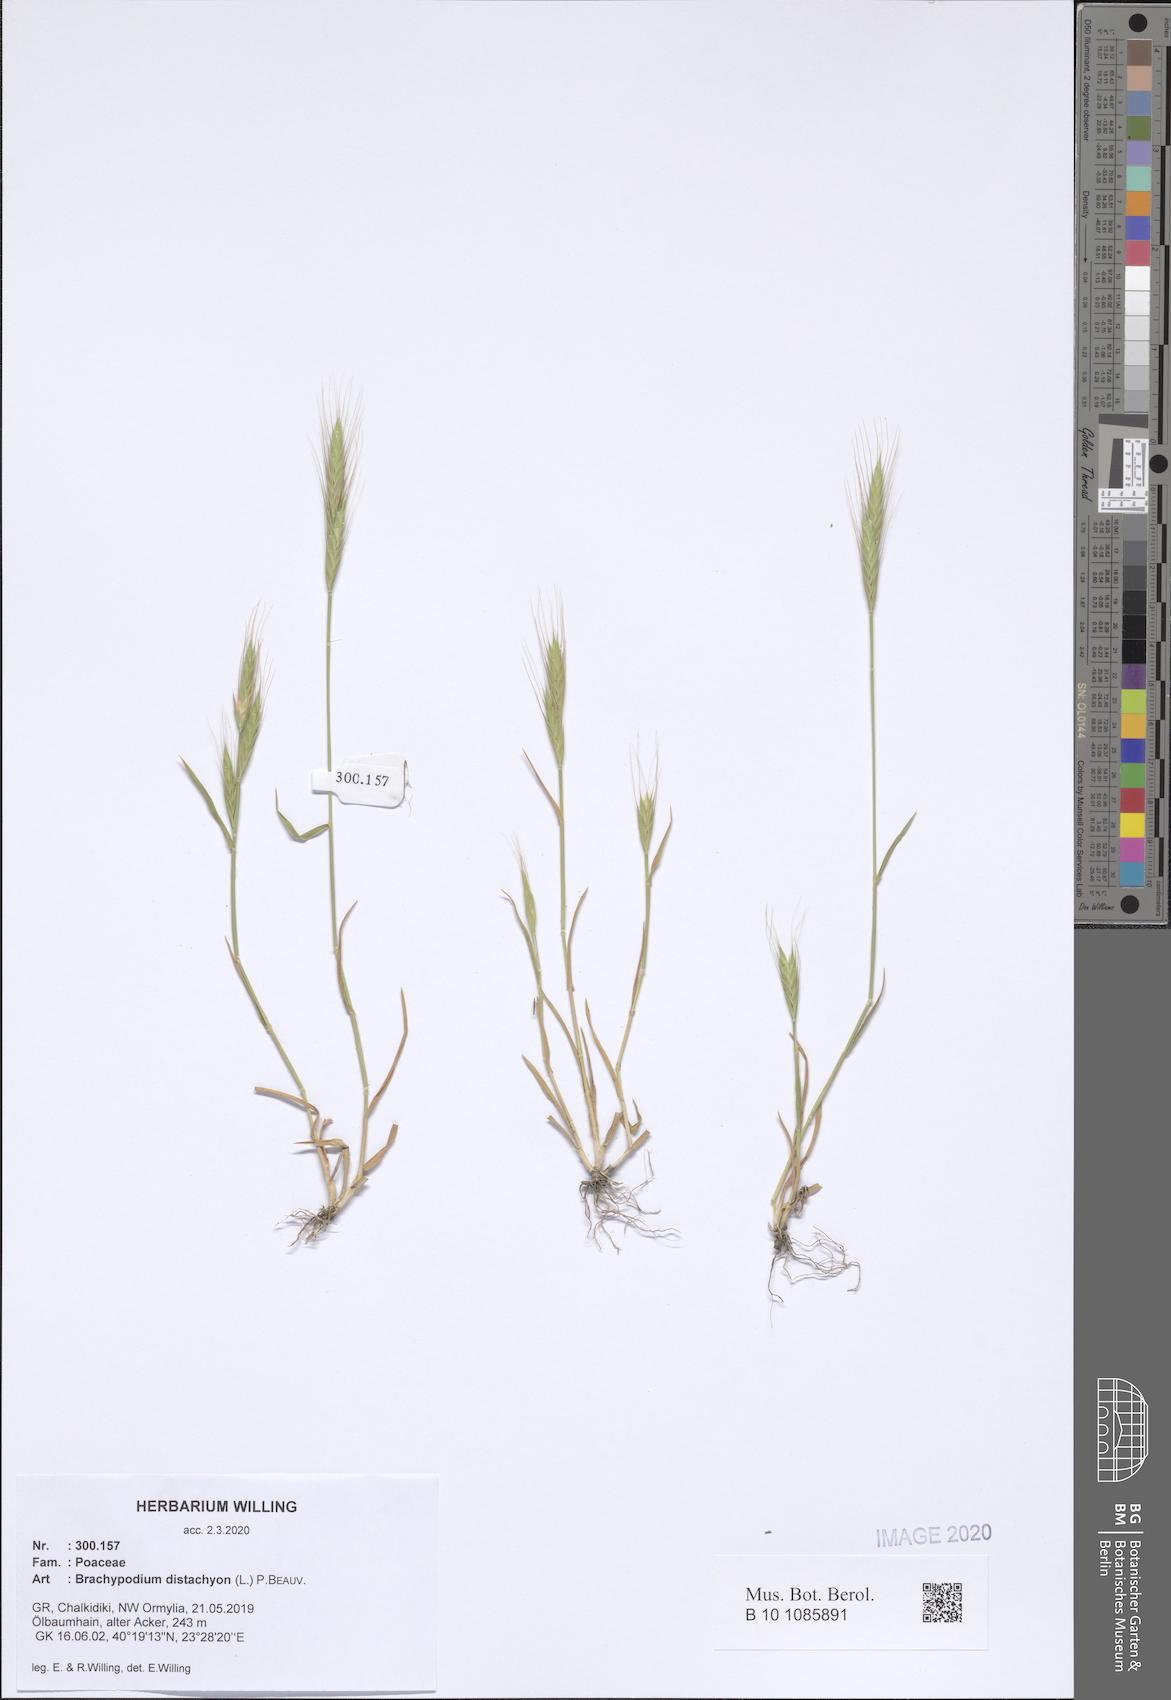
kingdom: Plantae
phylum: Tracheophyta
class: Liliopsida
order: Poales
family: Poaceae
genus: Brachypodium
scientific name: Brachypodium distachyon
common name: Stiff brome
